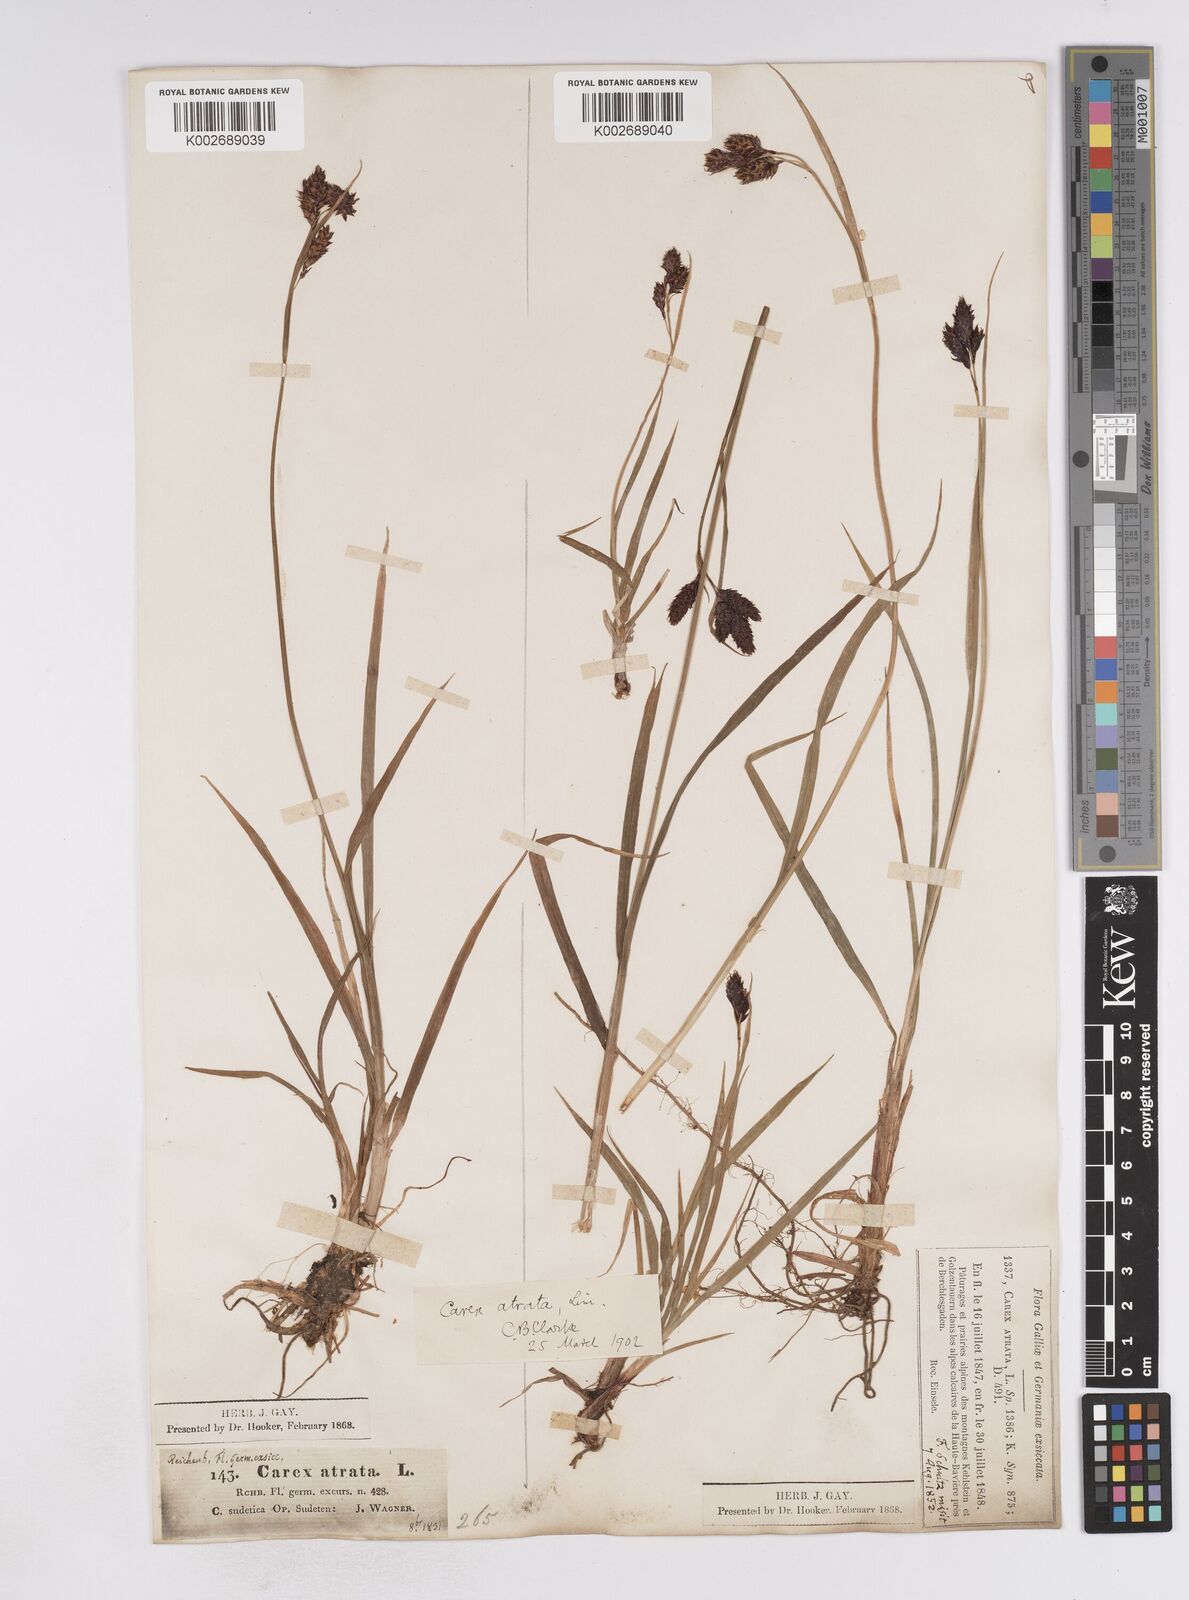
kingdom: Plantae
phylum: Tracheophyta
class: Liliopsida
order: Poales
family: Cyperaceae
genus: Carex
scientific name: Carex atrata
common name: Black alpine sedge
